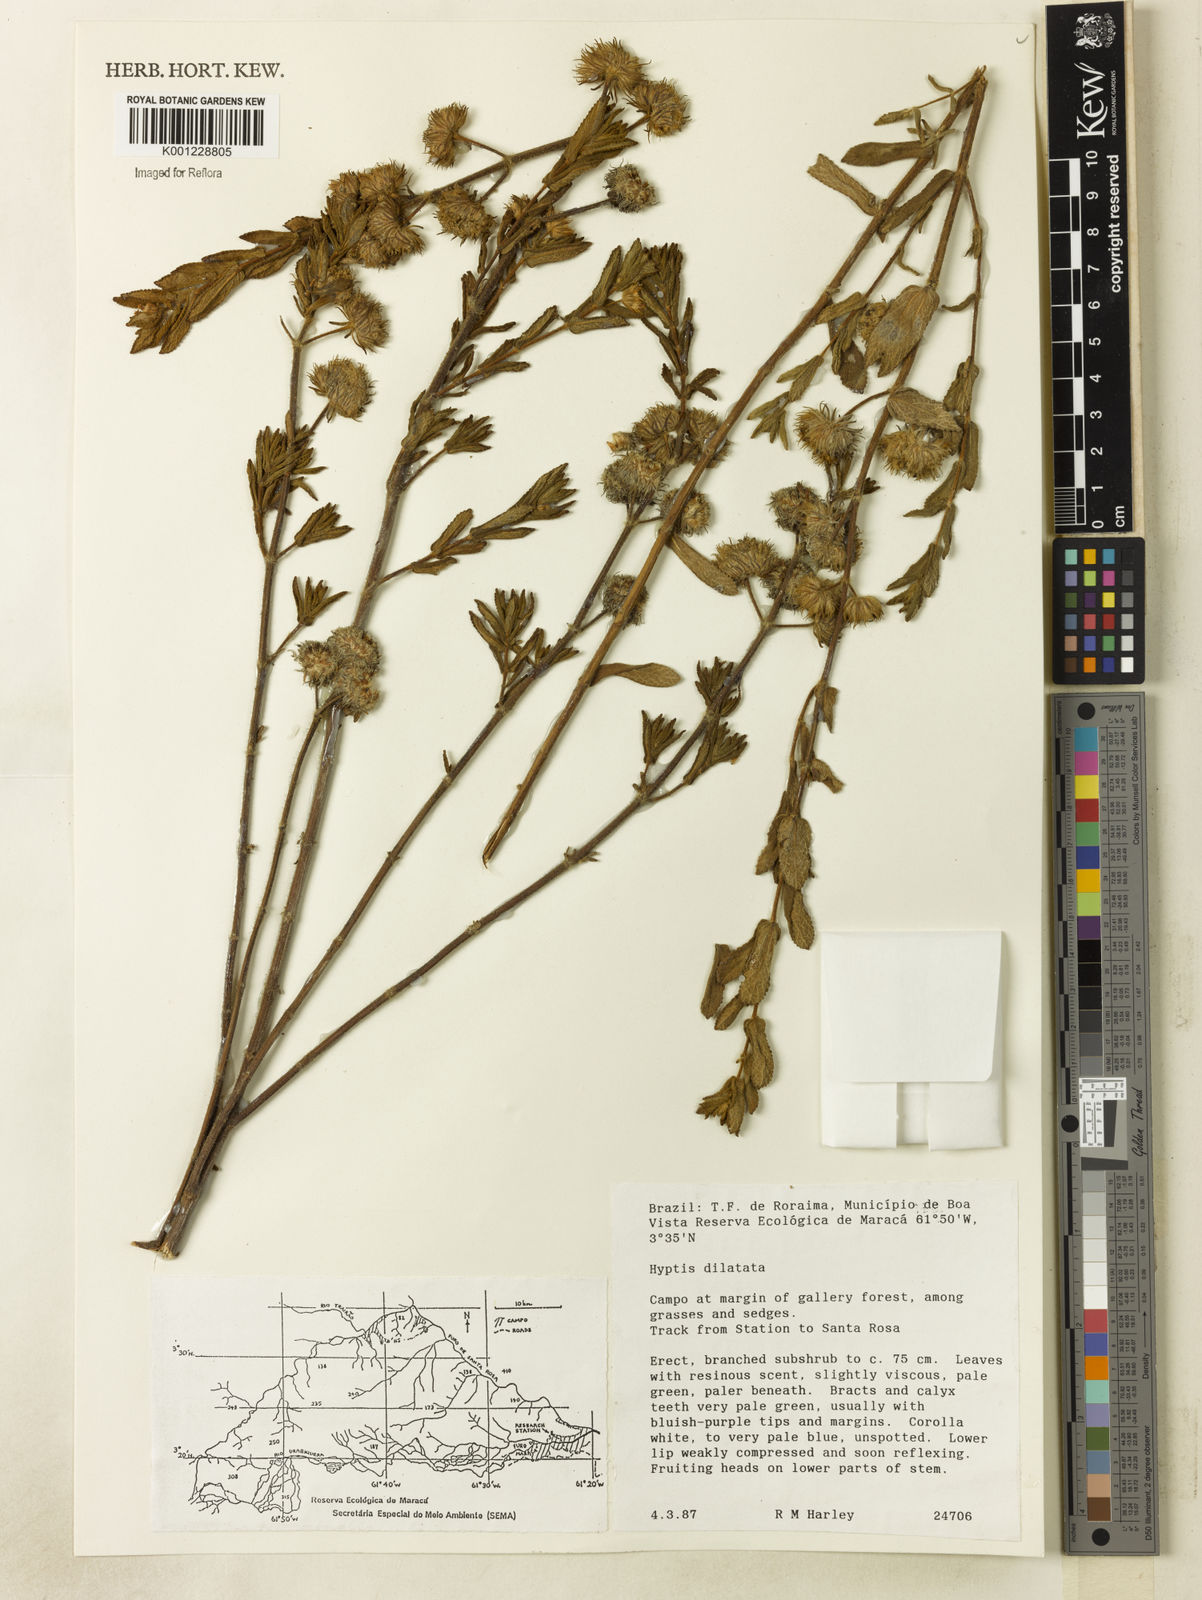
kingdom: Plantae
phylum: Tracheophyta
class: Magnoliopsida
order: Lamiales
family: Lamiaceae
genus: Hyptis
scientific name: Hyptis dilatata
